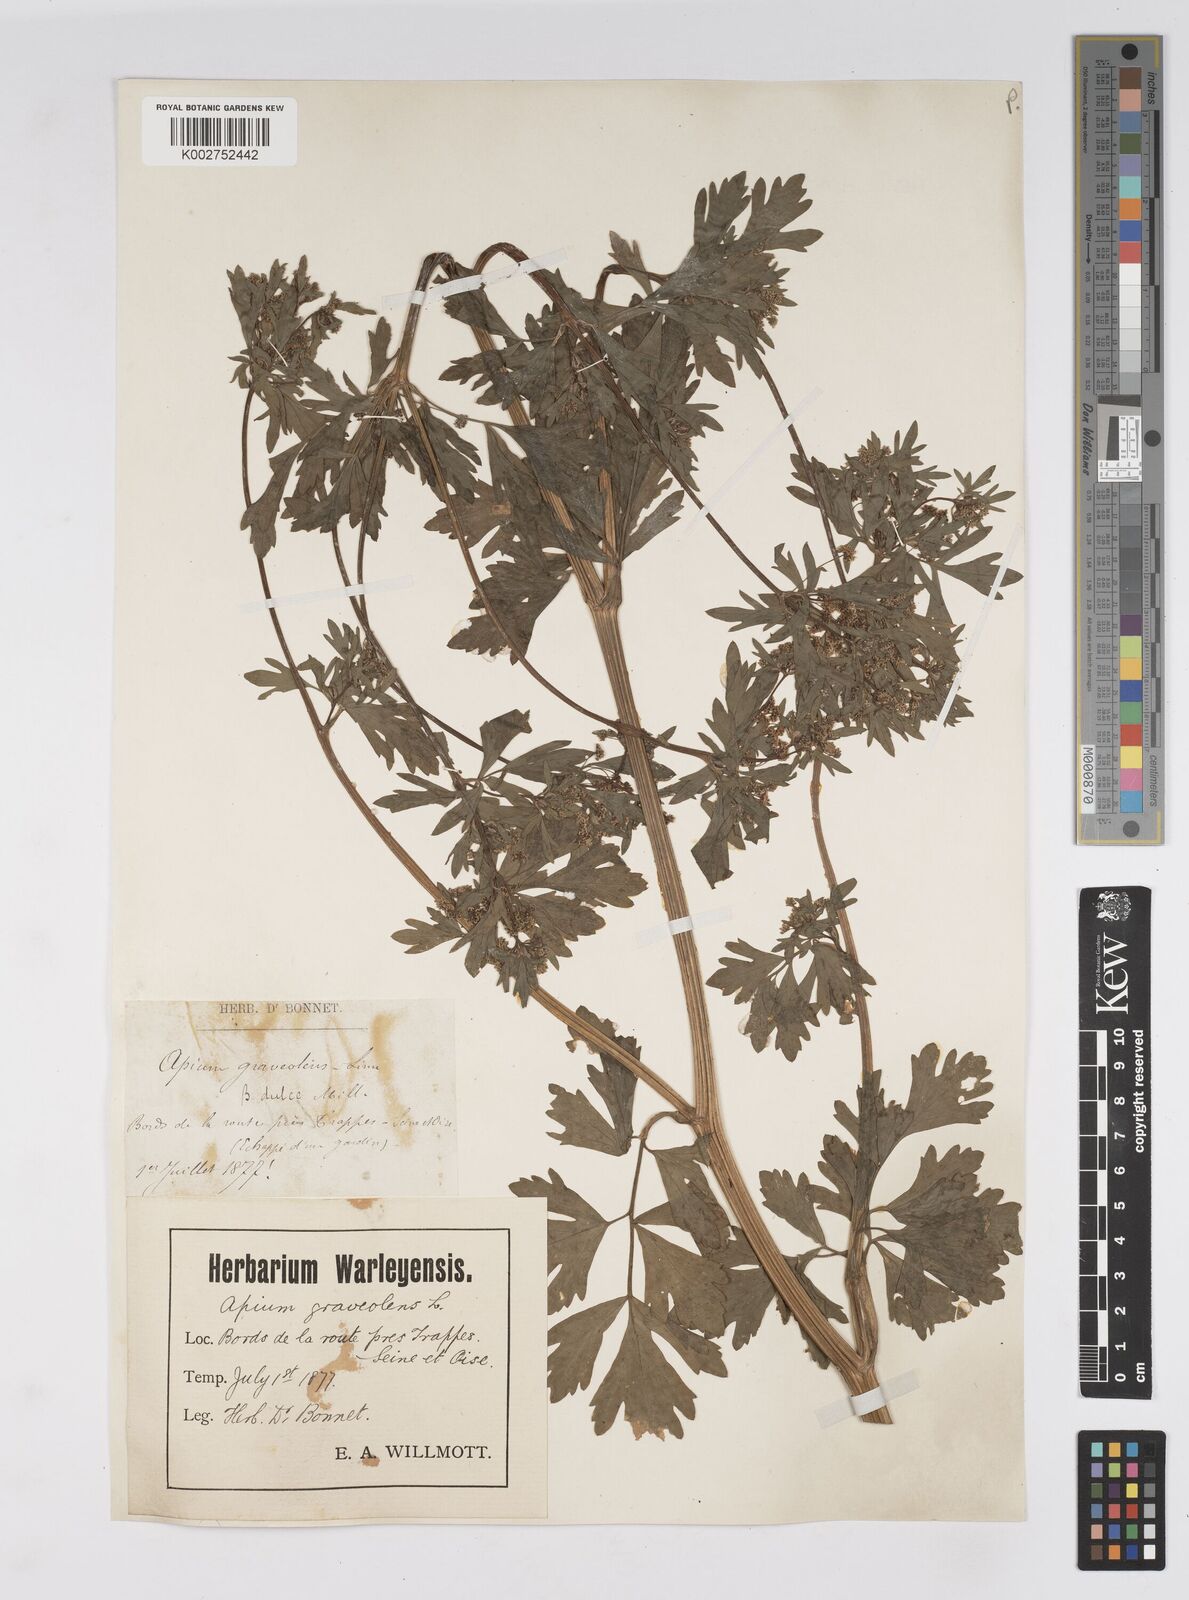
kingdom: Plantae
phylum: Tracheophyta
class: Magnoliopsida
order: Apiales
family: Apiaceae
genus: Apium
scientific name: Apium graveolens
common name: Wild celery
